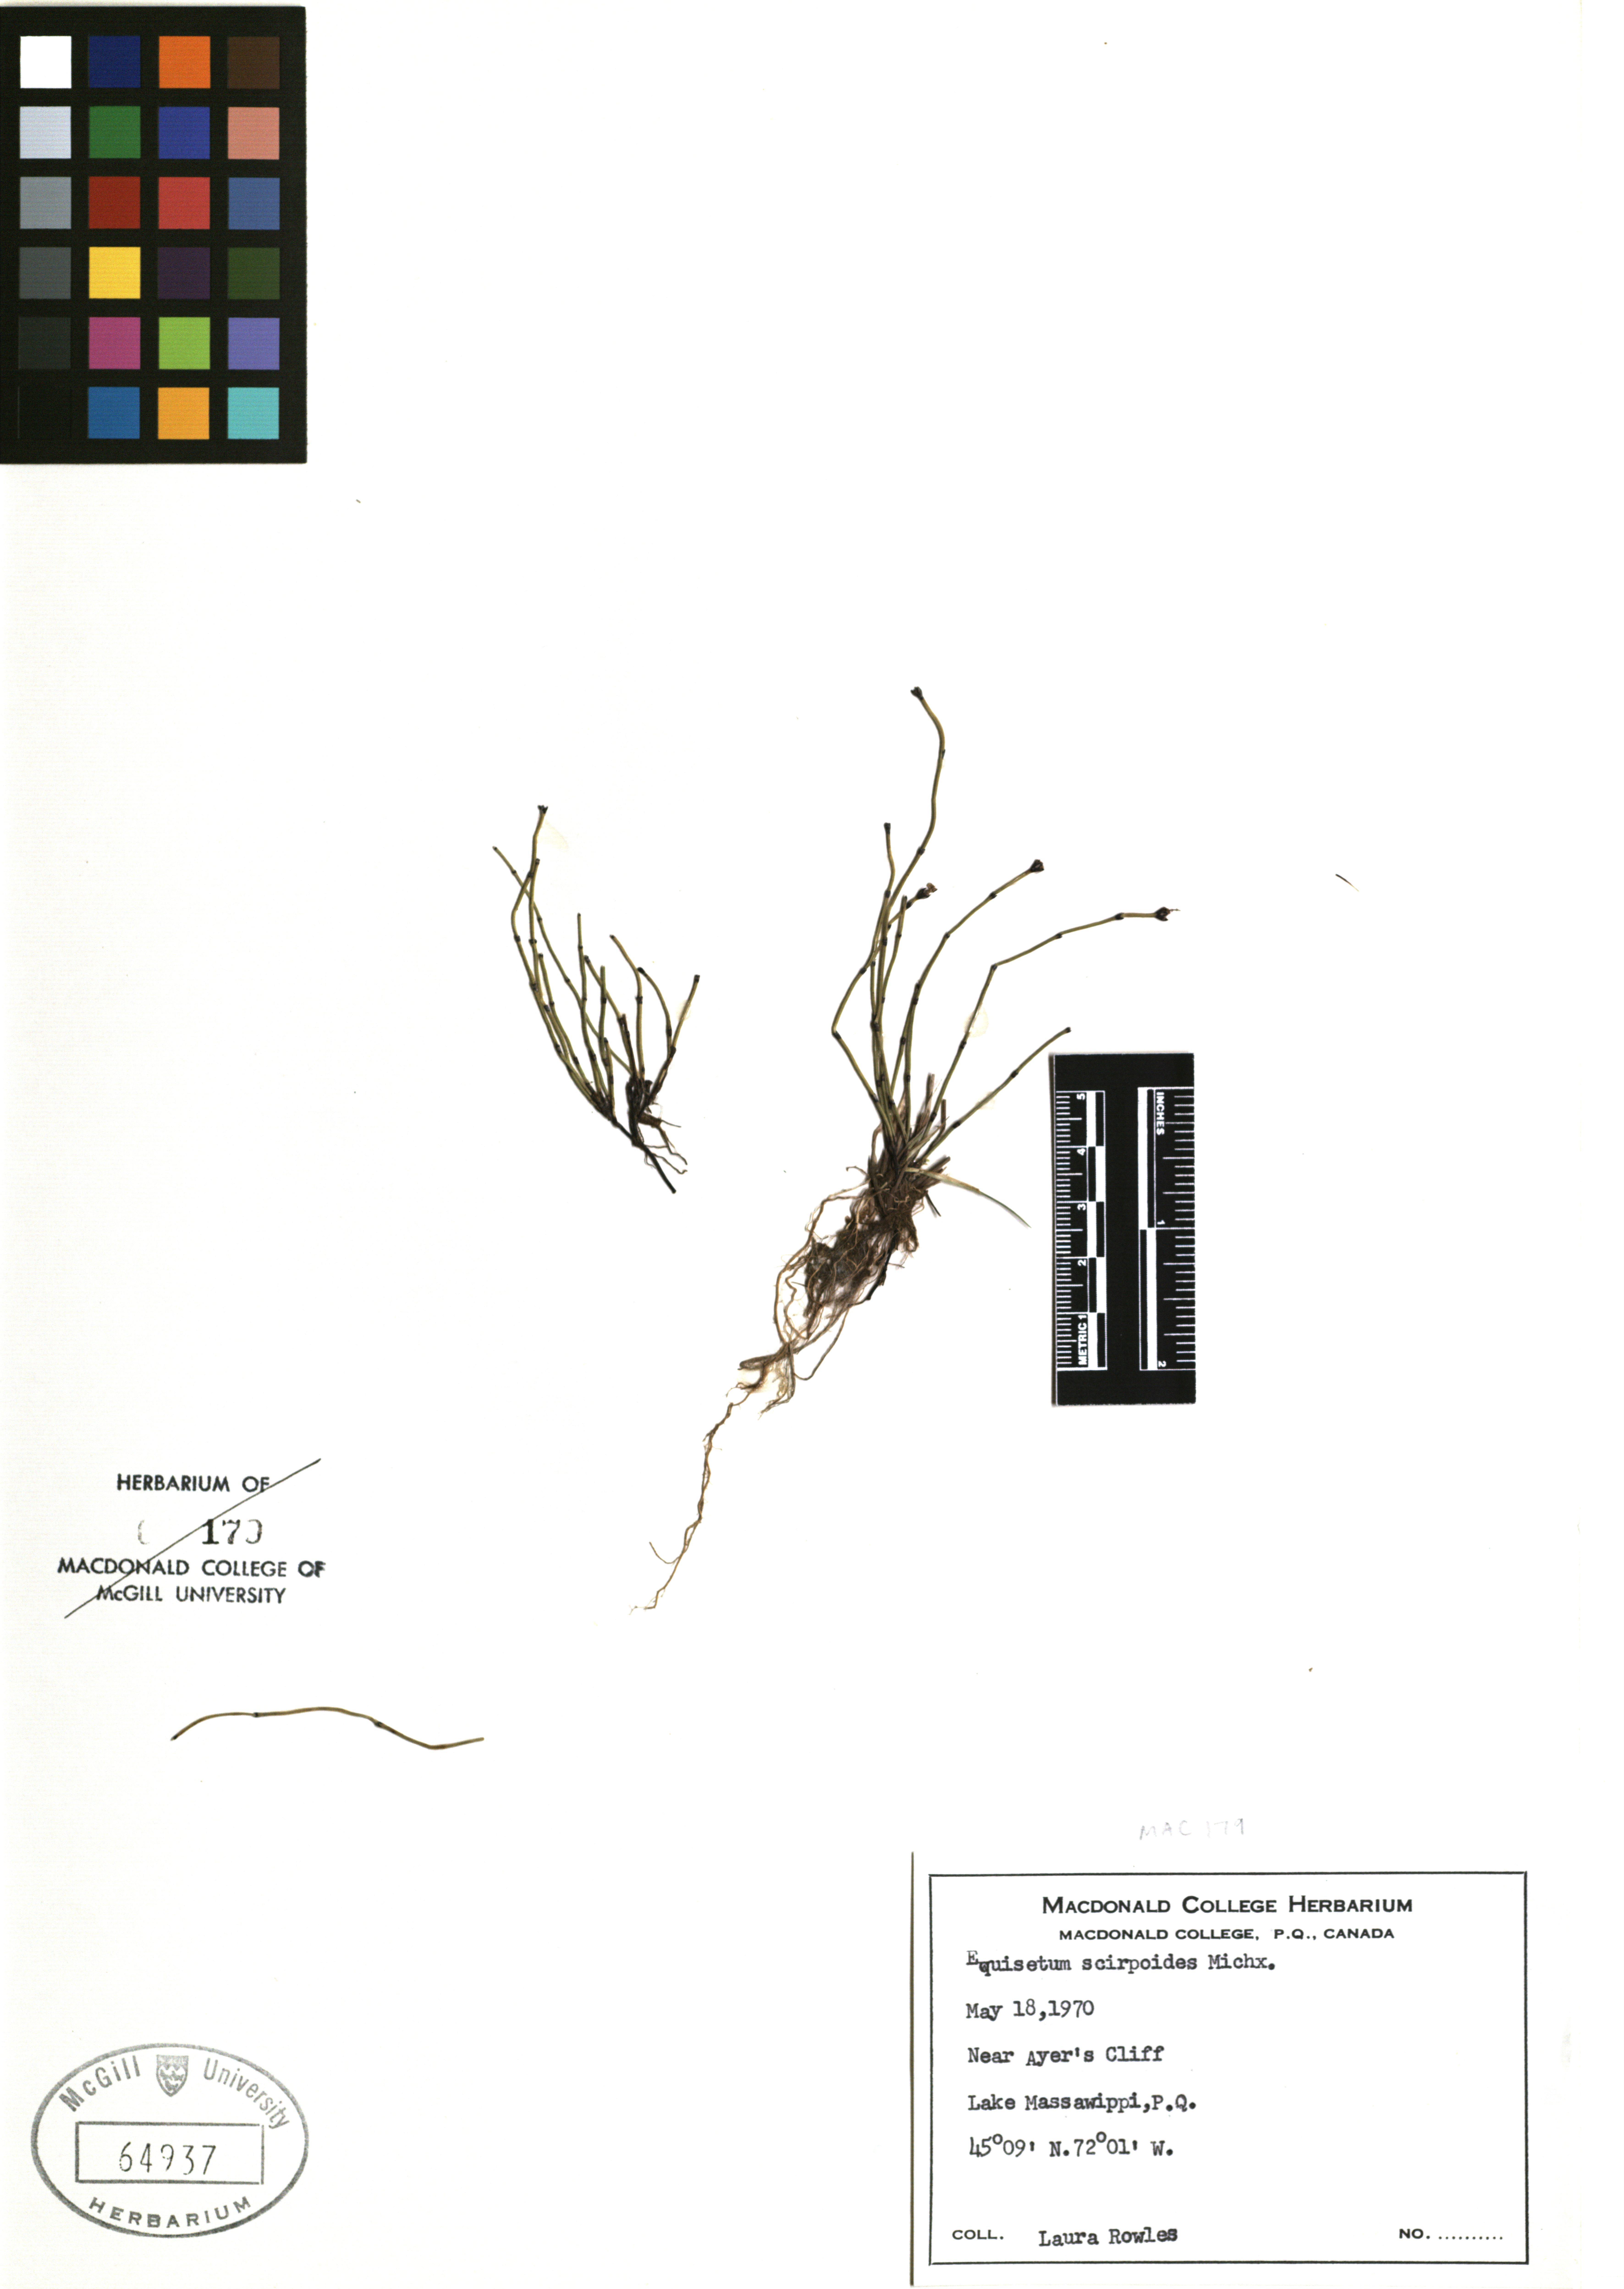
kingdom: Plantae
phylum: Tracheophyta
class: Polypodiopsida
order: Equisetales
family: Equisetaceae
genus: Equisetum
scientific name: Equisetum scirpoides
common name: Delicate horsetail
